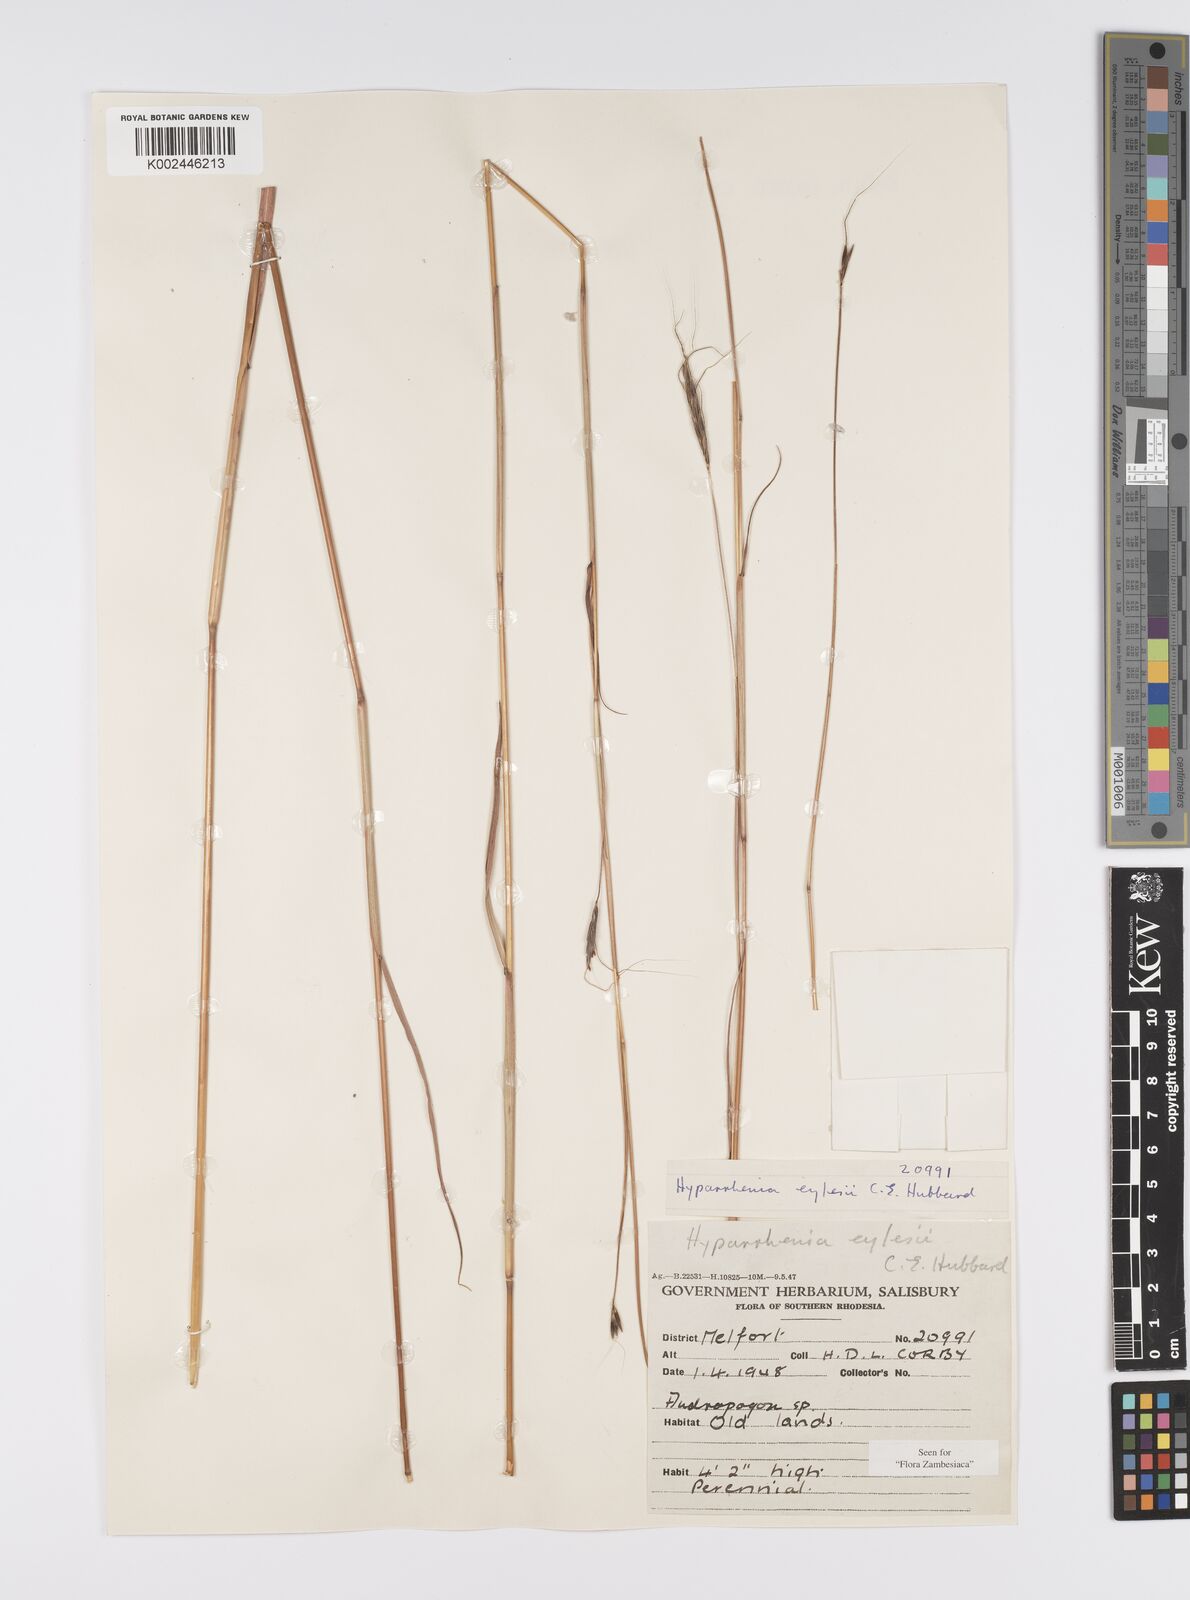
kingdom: Plantae
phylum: Tracheophyta
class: Liliopsida
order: Poales
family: Poaceae
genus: Elymandra
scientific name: Elymandra grallata
